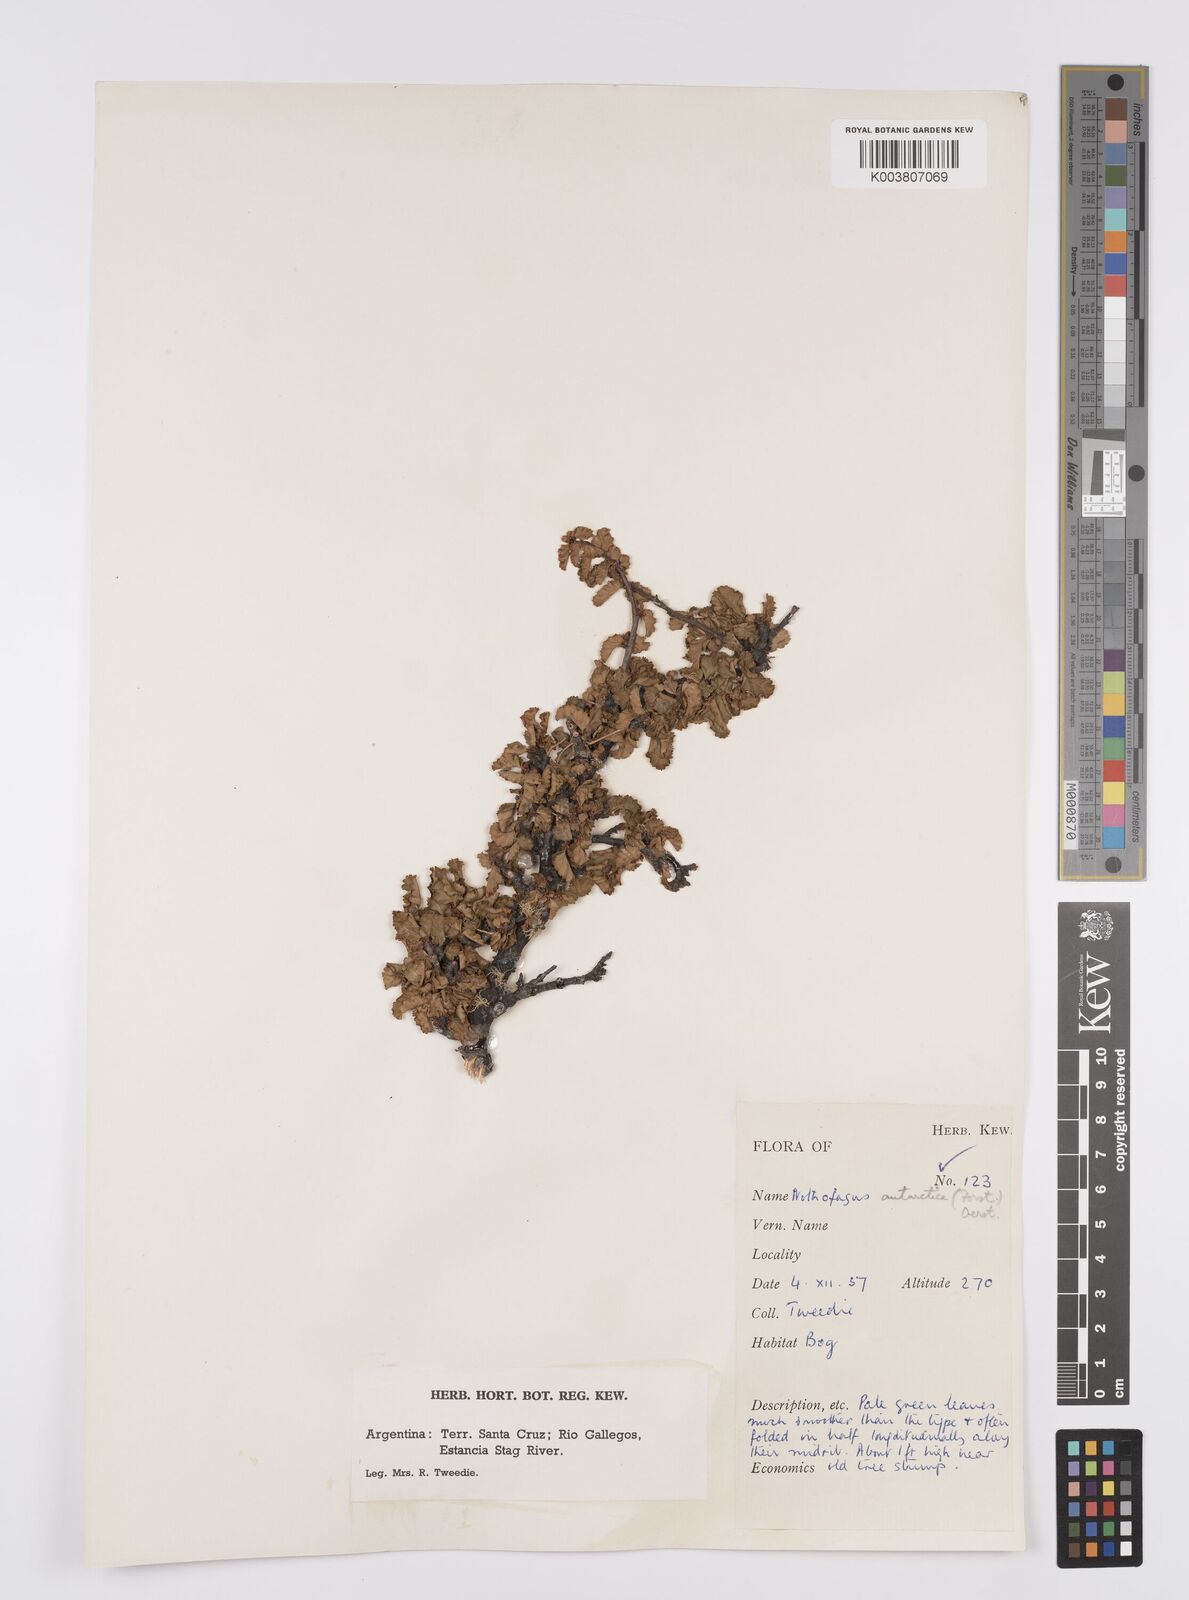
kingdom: Plantae
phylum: Tracheophyta
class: Magnoliopsida
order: Fagales
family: Nothofagaceae
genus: Nothofagus
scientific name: Nothofagus antarctica
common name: Antarctic beech
